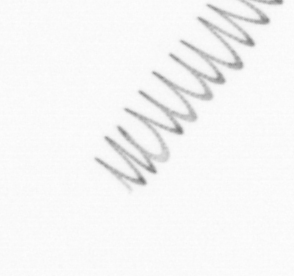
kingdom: Chromista
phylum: Ochrophyta
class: Bacillariophyceae
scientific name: Bacillariophyceae
